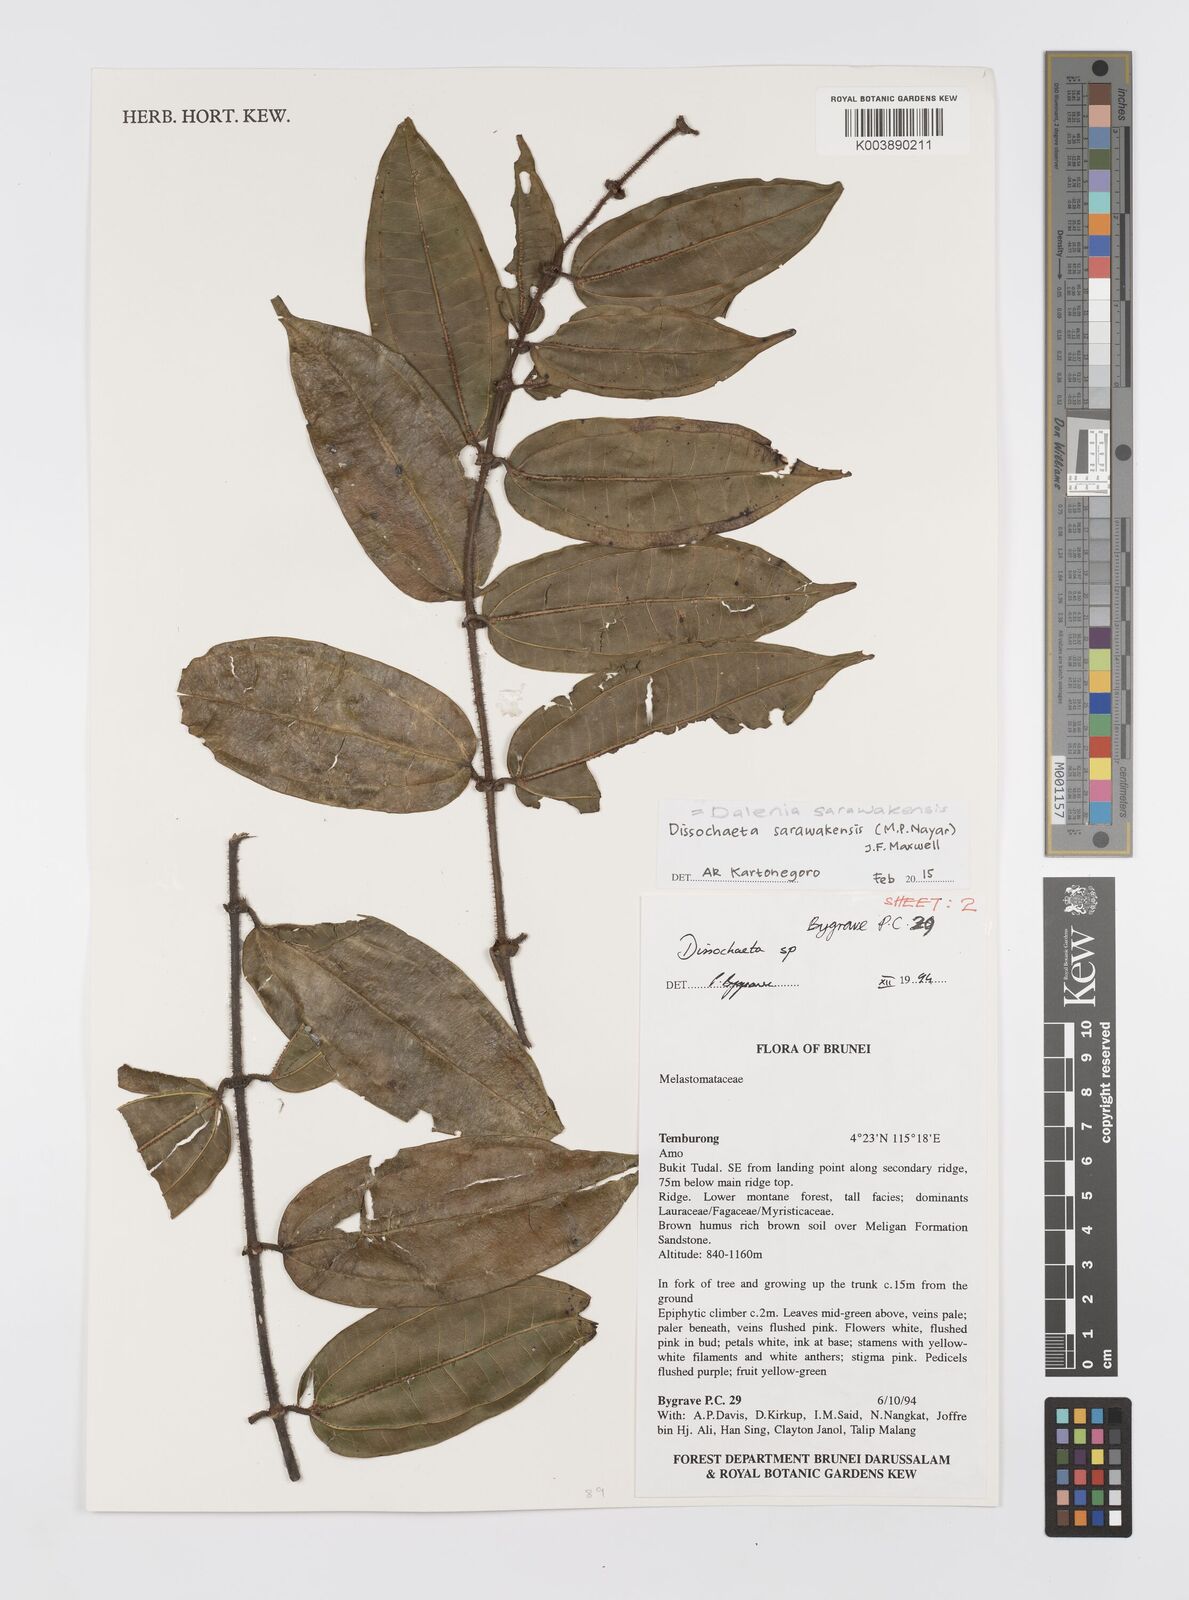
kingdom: Plantae
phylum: Tracheophyta
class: Magnoliopsida
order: Myrtales
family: Melastomataceae
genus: Dalenia
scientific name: Dalenia
